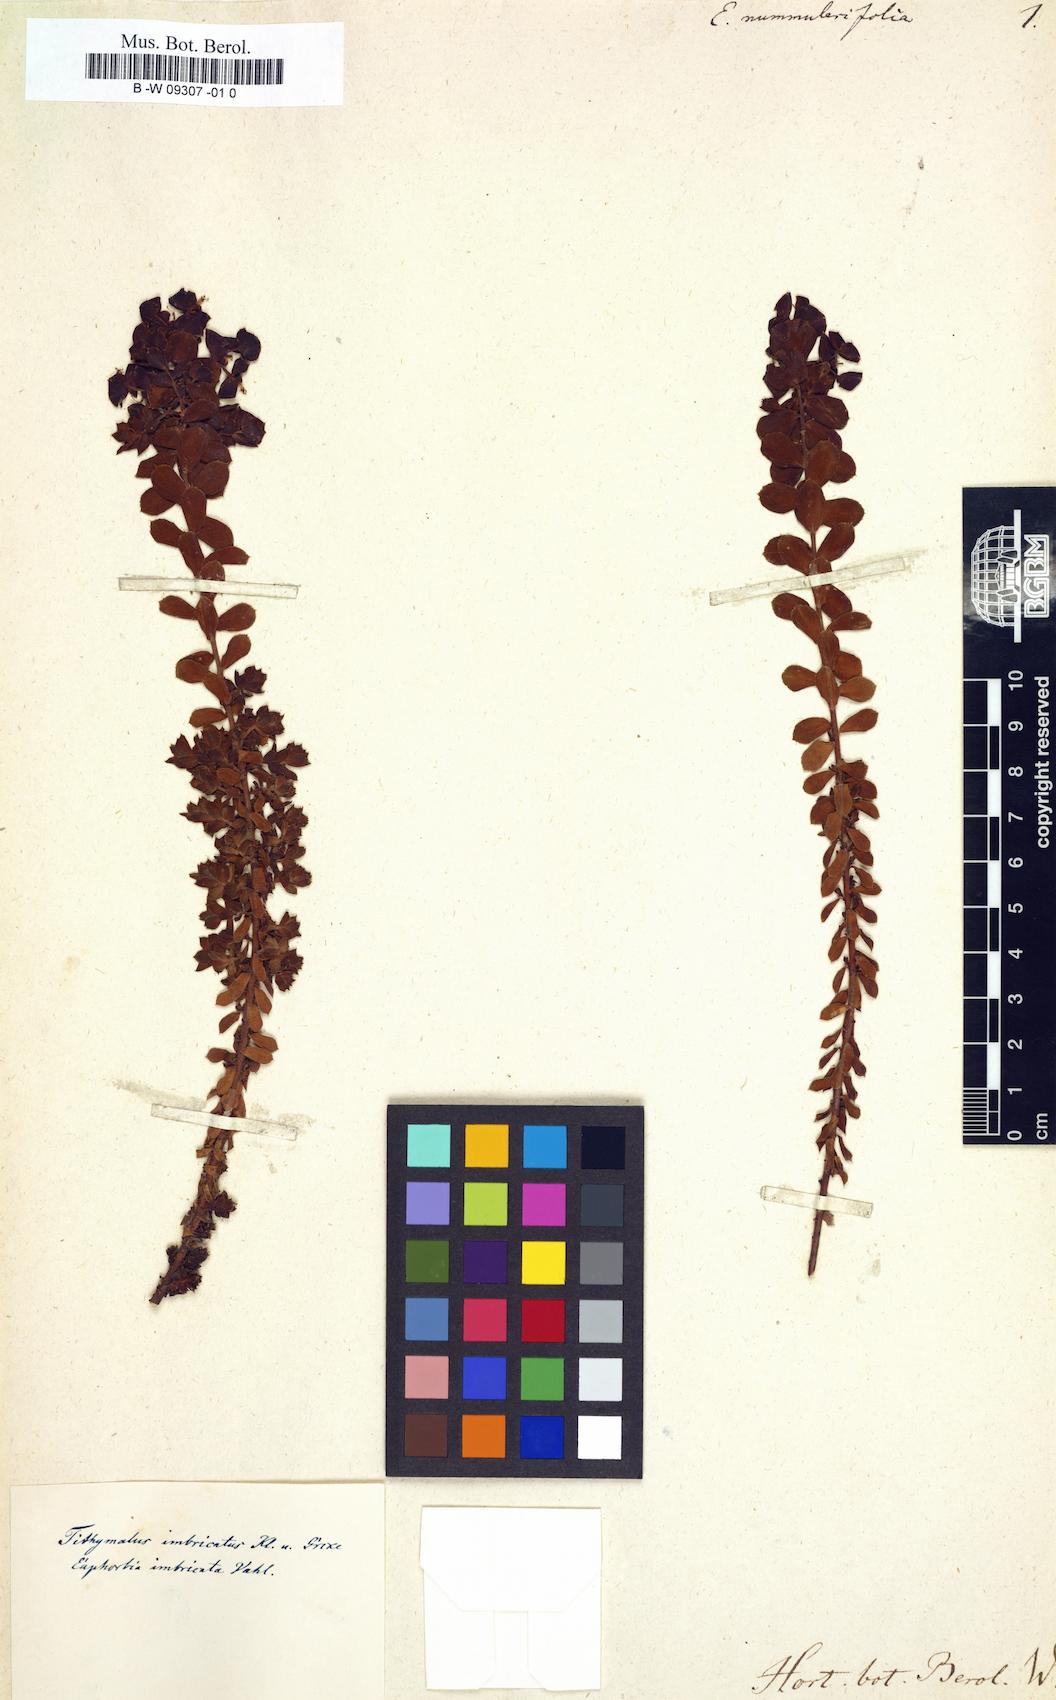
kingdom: Plantae
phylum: Tracheophyta
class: Magnoliopsida
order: Malpighiales
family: Euphorbiaceae
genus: Euphorbia
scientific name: Euphorbia pithyusa
